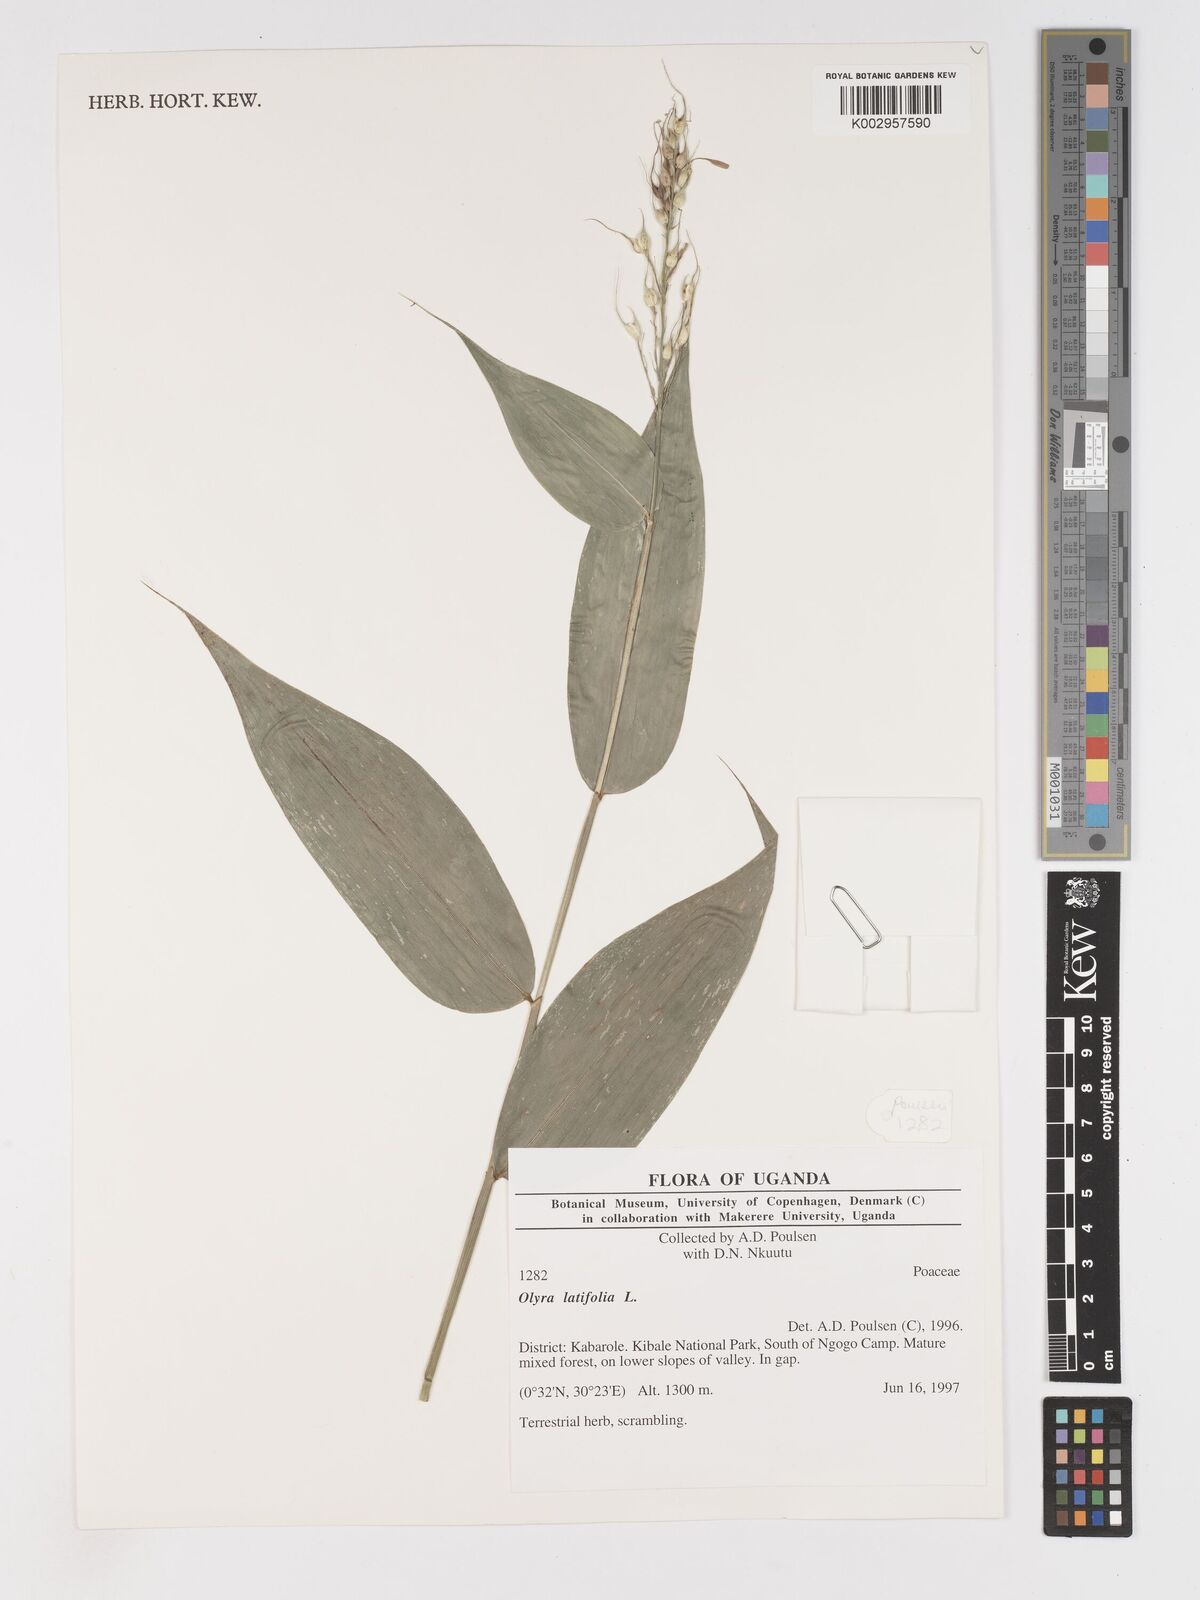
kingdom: Plantae
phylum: Tracheophyta
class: Liliopsida
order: Poales
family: Poaceae
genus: Olyra
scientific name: Olyra latifolia
